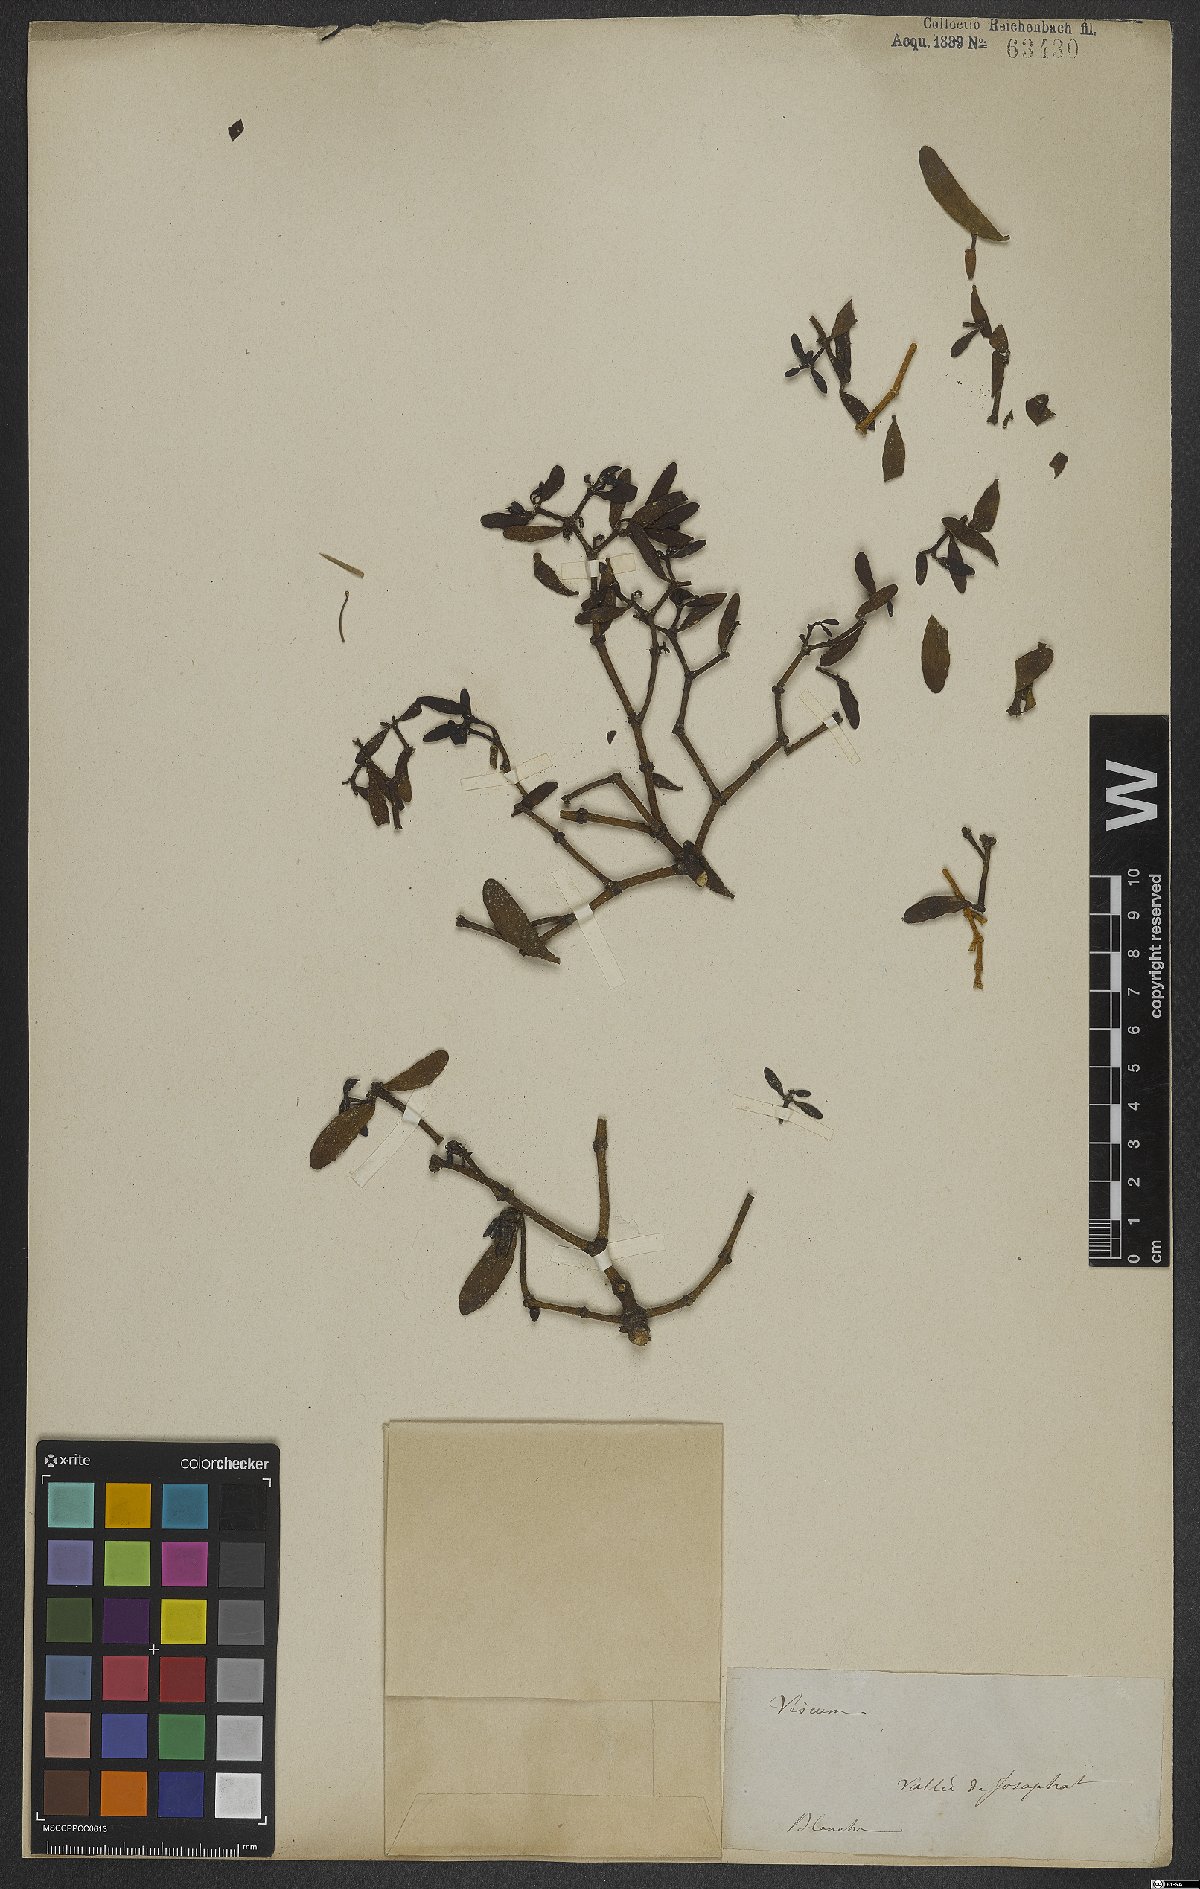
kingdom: Plantae
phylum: Tracheophyta
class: Magnoliopsida
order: Santalales
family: Viscaceae
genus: Viscum
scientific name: Viscum
